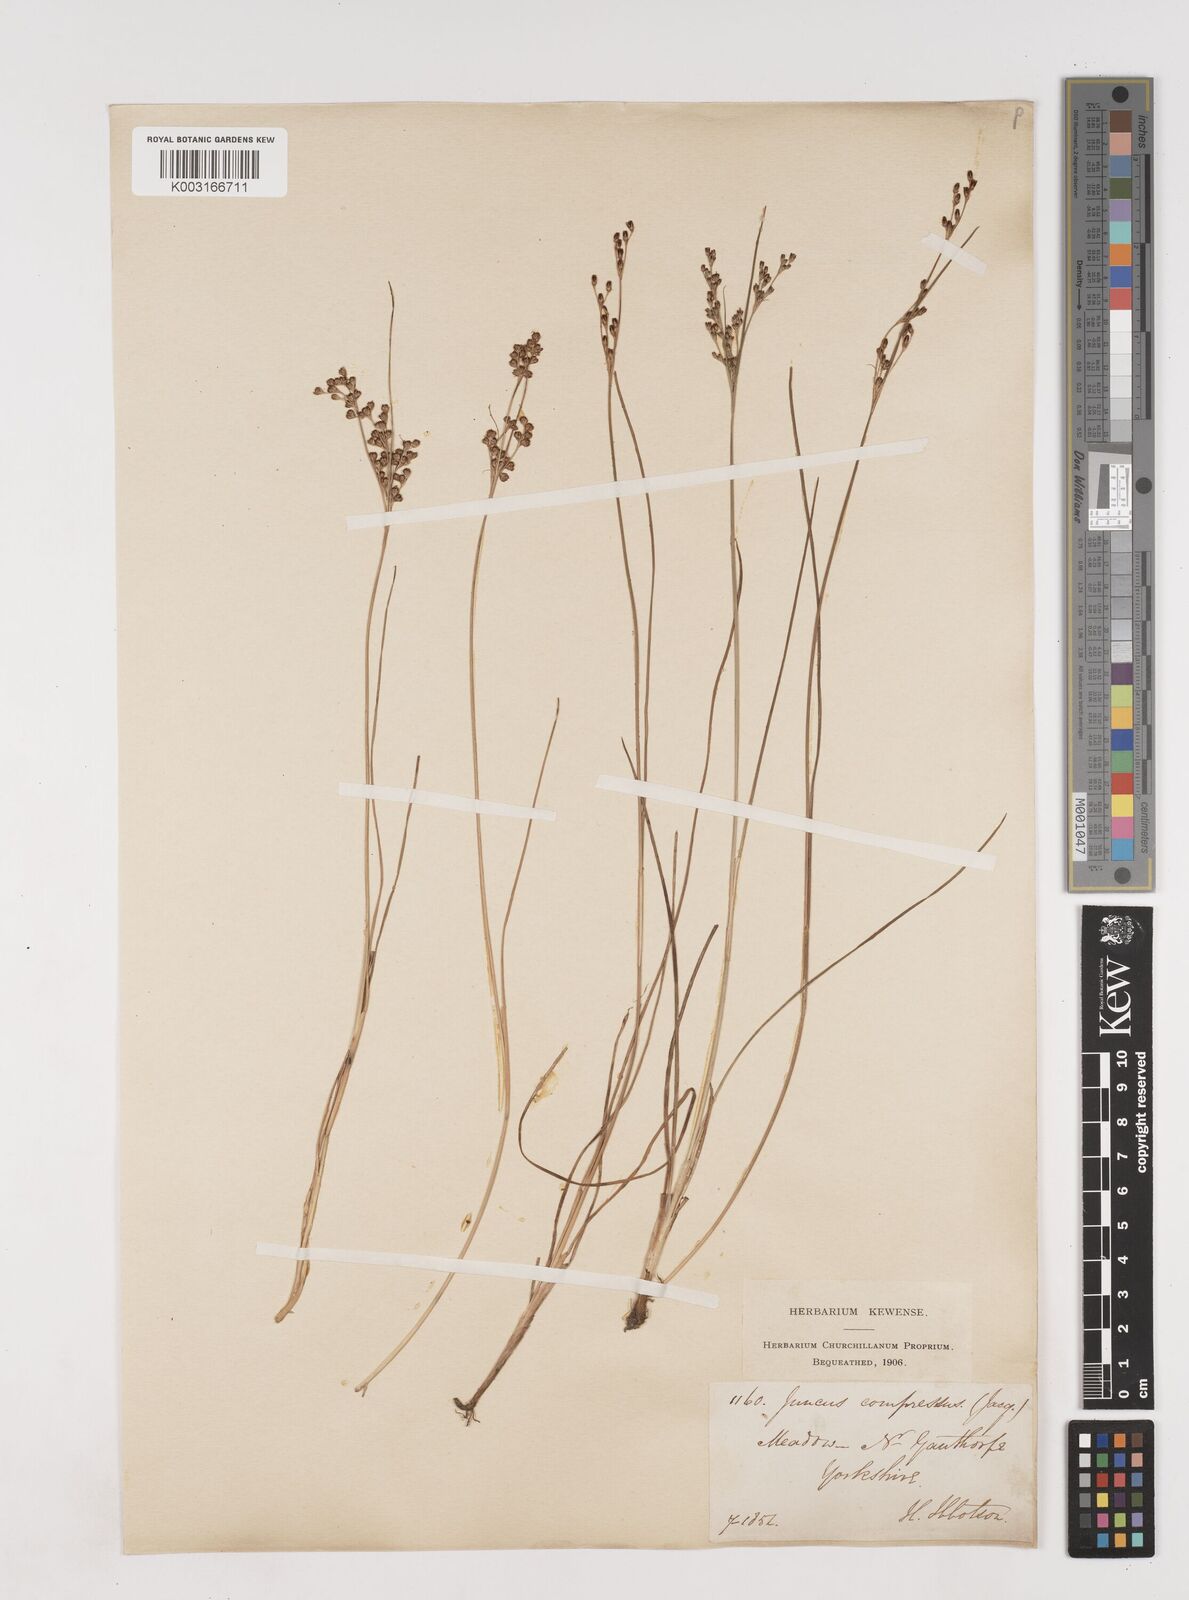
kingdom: Plantae
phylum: Tracheophyta
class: Liliopsida
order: Poales
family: Juncaceae
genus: Juncus
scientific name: Juncus compressus
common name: Round-fruited rush
